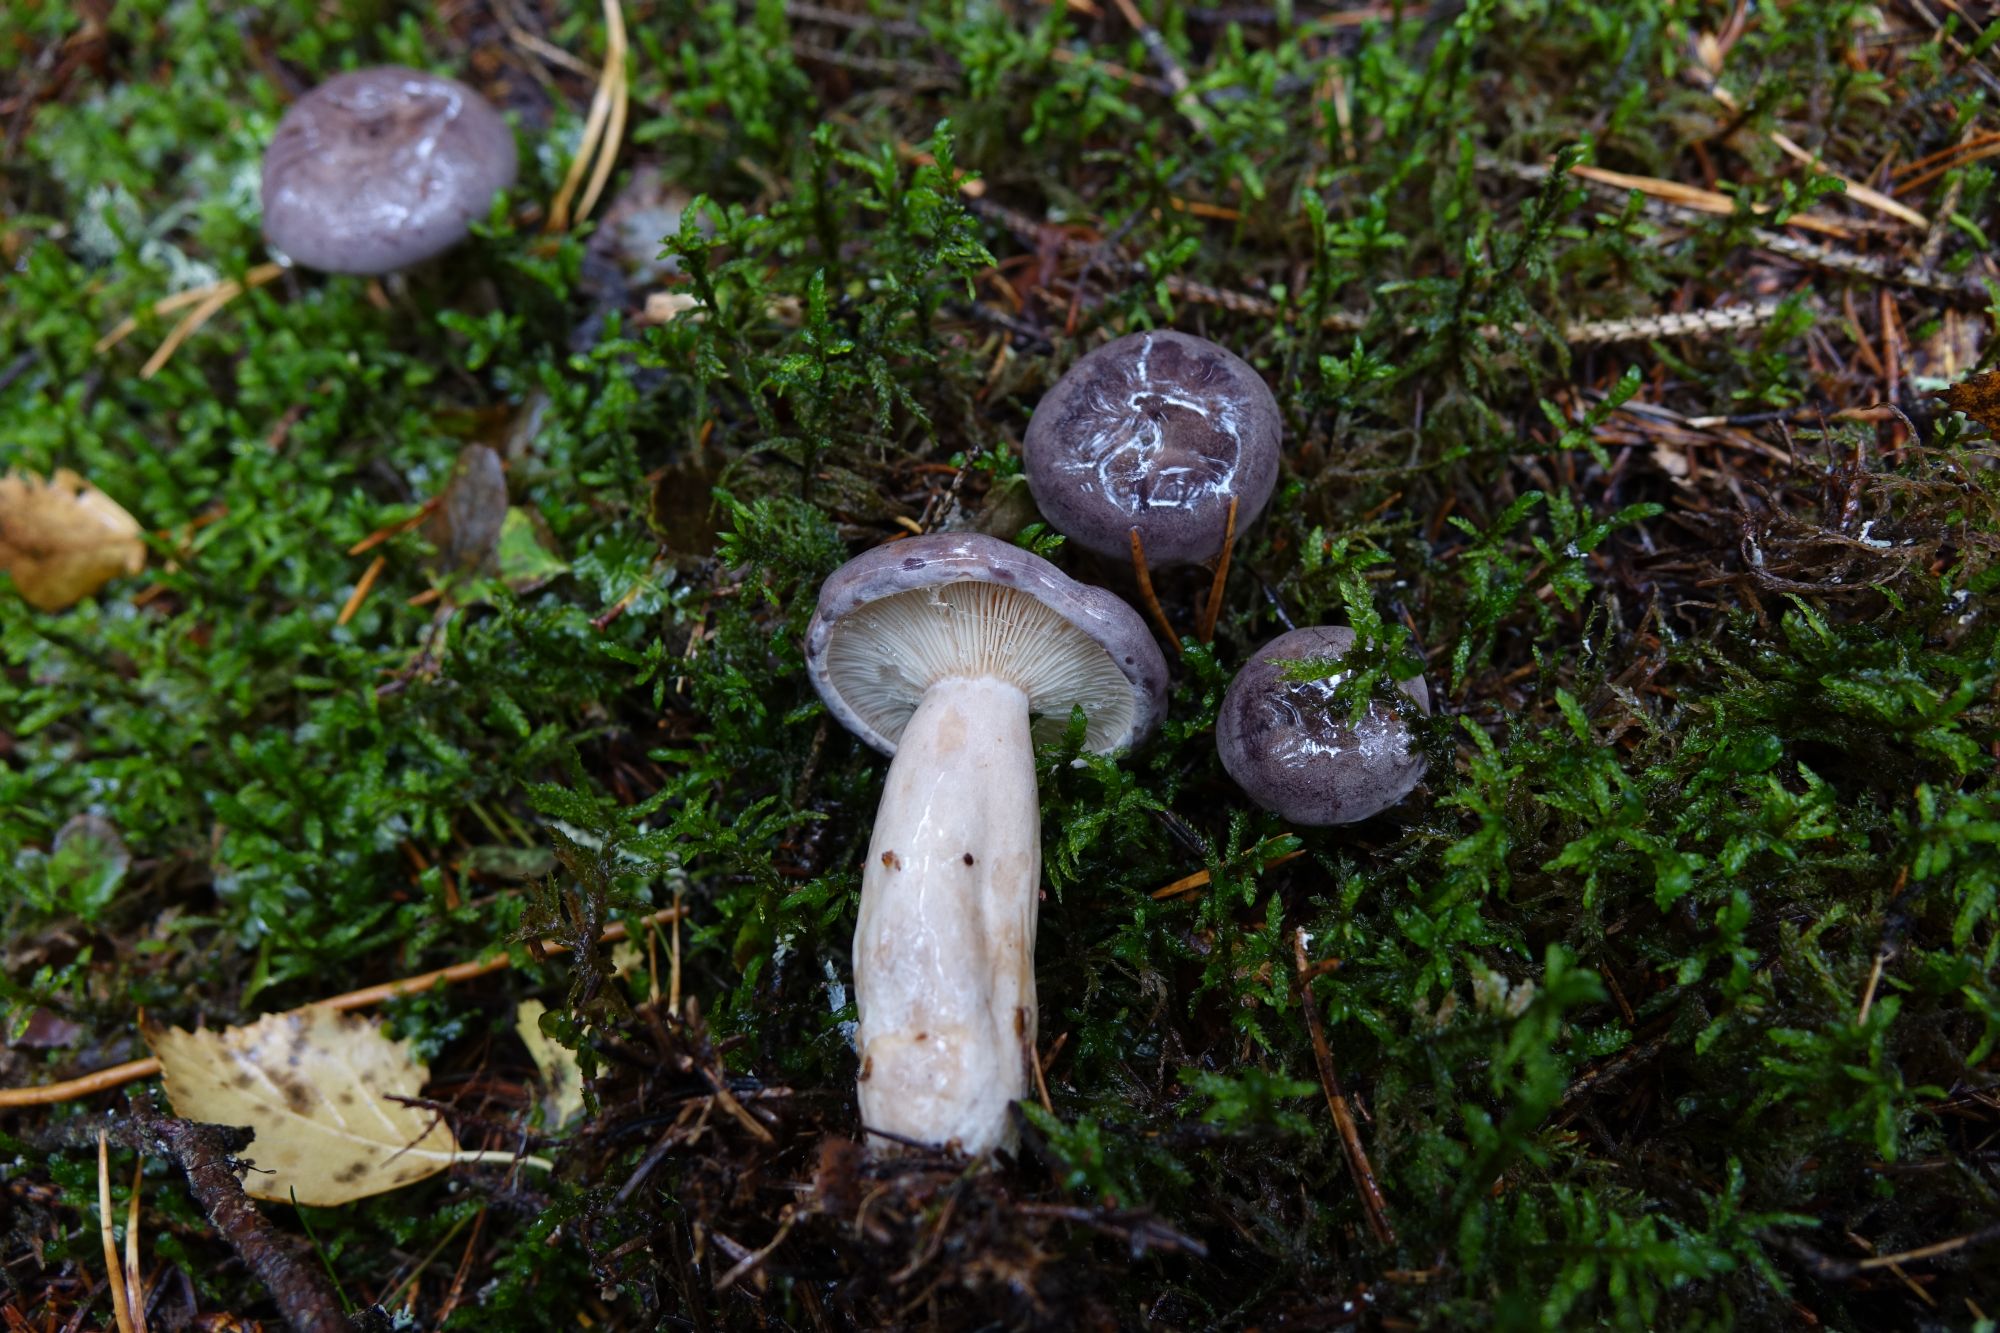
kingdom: Fungi
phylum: Basidiomycota
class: Agaricomycetes
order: Russulales
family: Russulaceae
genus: Lactarius
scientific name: Lactarius trivialis
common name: Tacked milkcap
